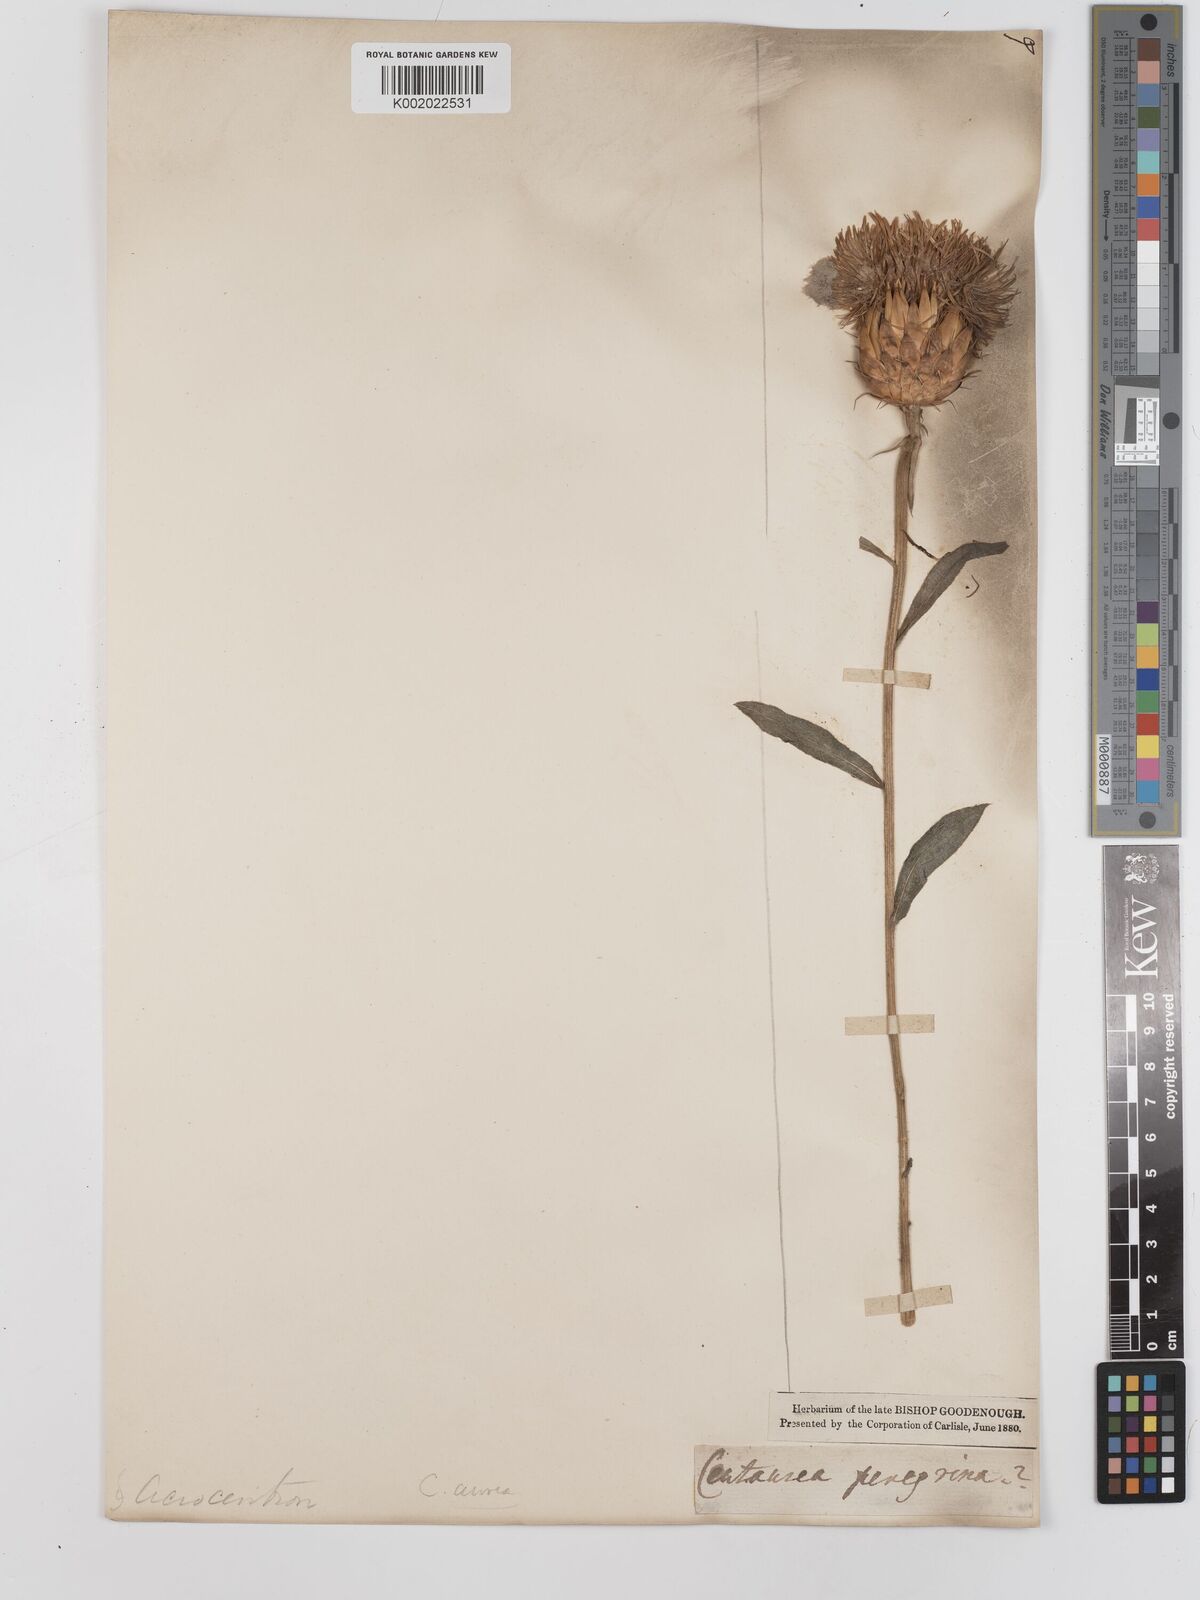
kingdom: Plantae
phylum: Tracheophyta
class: Magnoliopsida
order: Asterales
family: Asteraceae
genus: Centaurea
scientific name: Centaurea thracica
